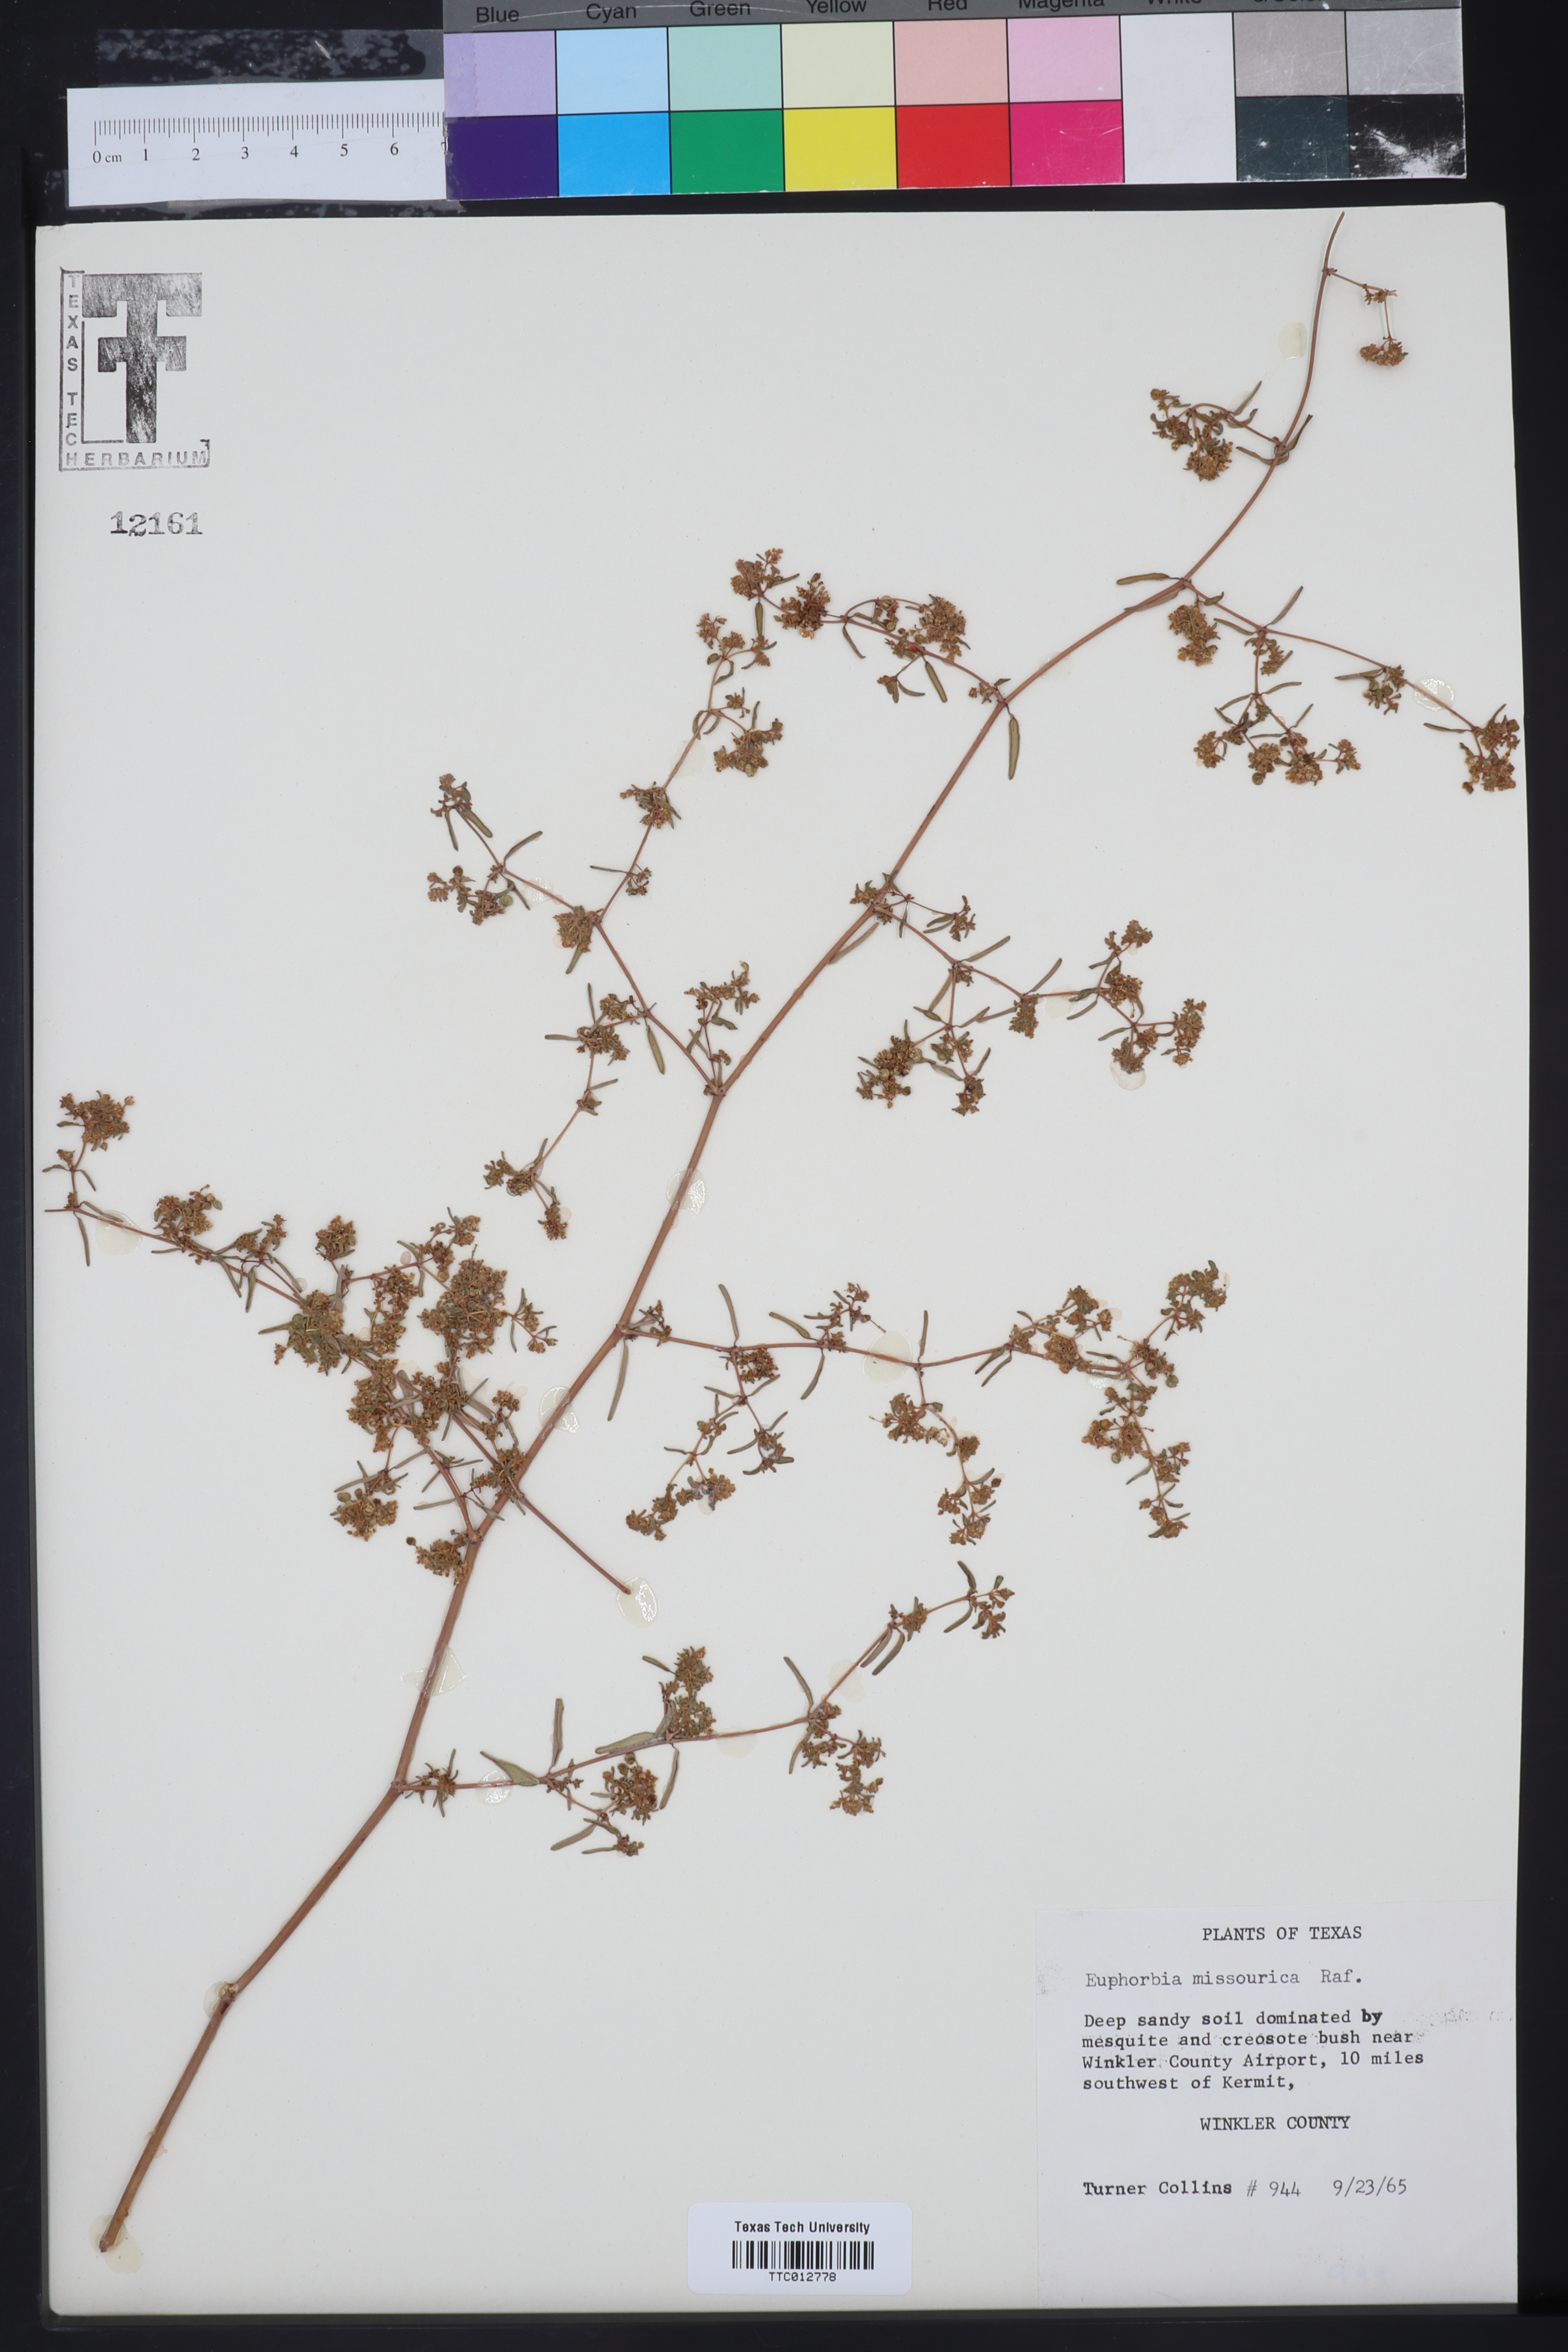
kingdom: Plantae
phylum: Tracheophyta
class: Magnoliopsida
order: Malpighiales
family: Euphorbiaceae
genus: Euphorbia
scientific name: Euphorbia missurica
